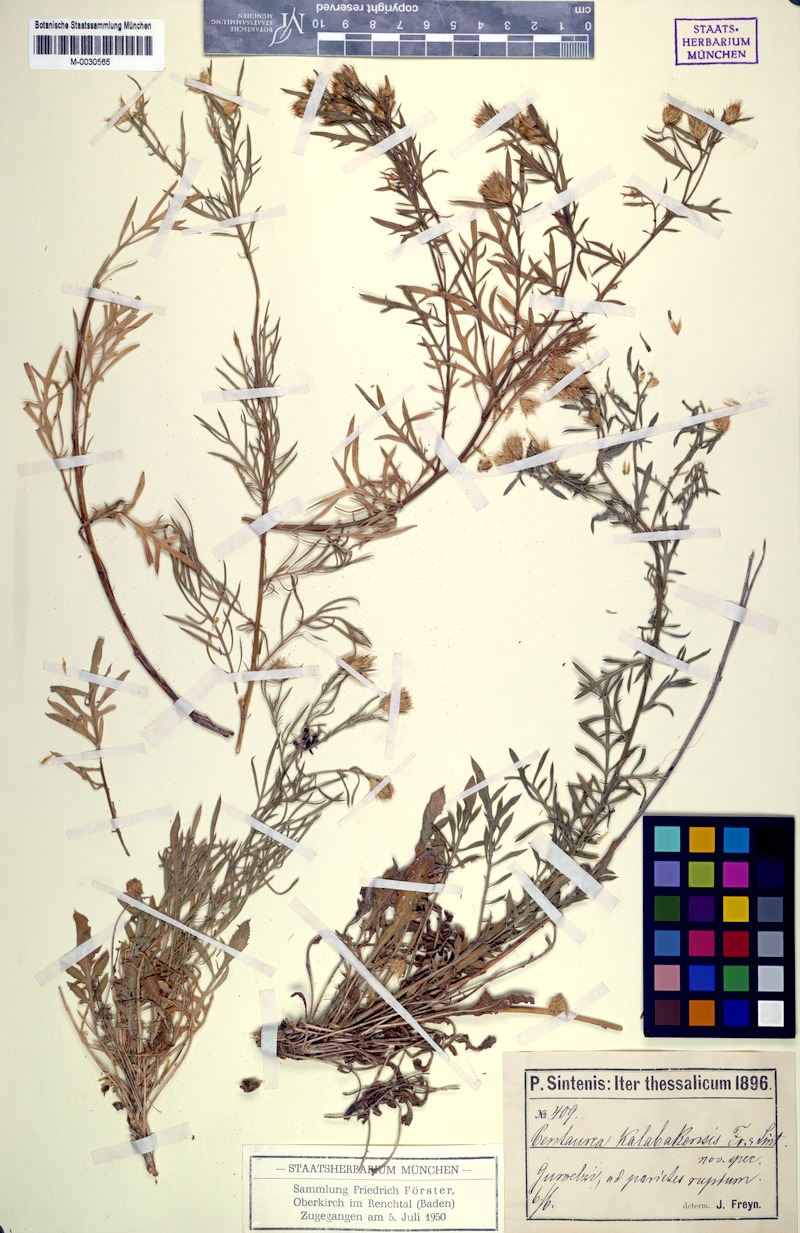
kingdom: Plantae
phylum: Tracheophyta
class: Magnoliopsida
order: Asterales
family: Asteraceae
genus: Centaurea
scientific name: Centaurea kalambakensis
